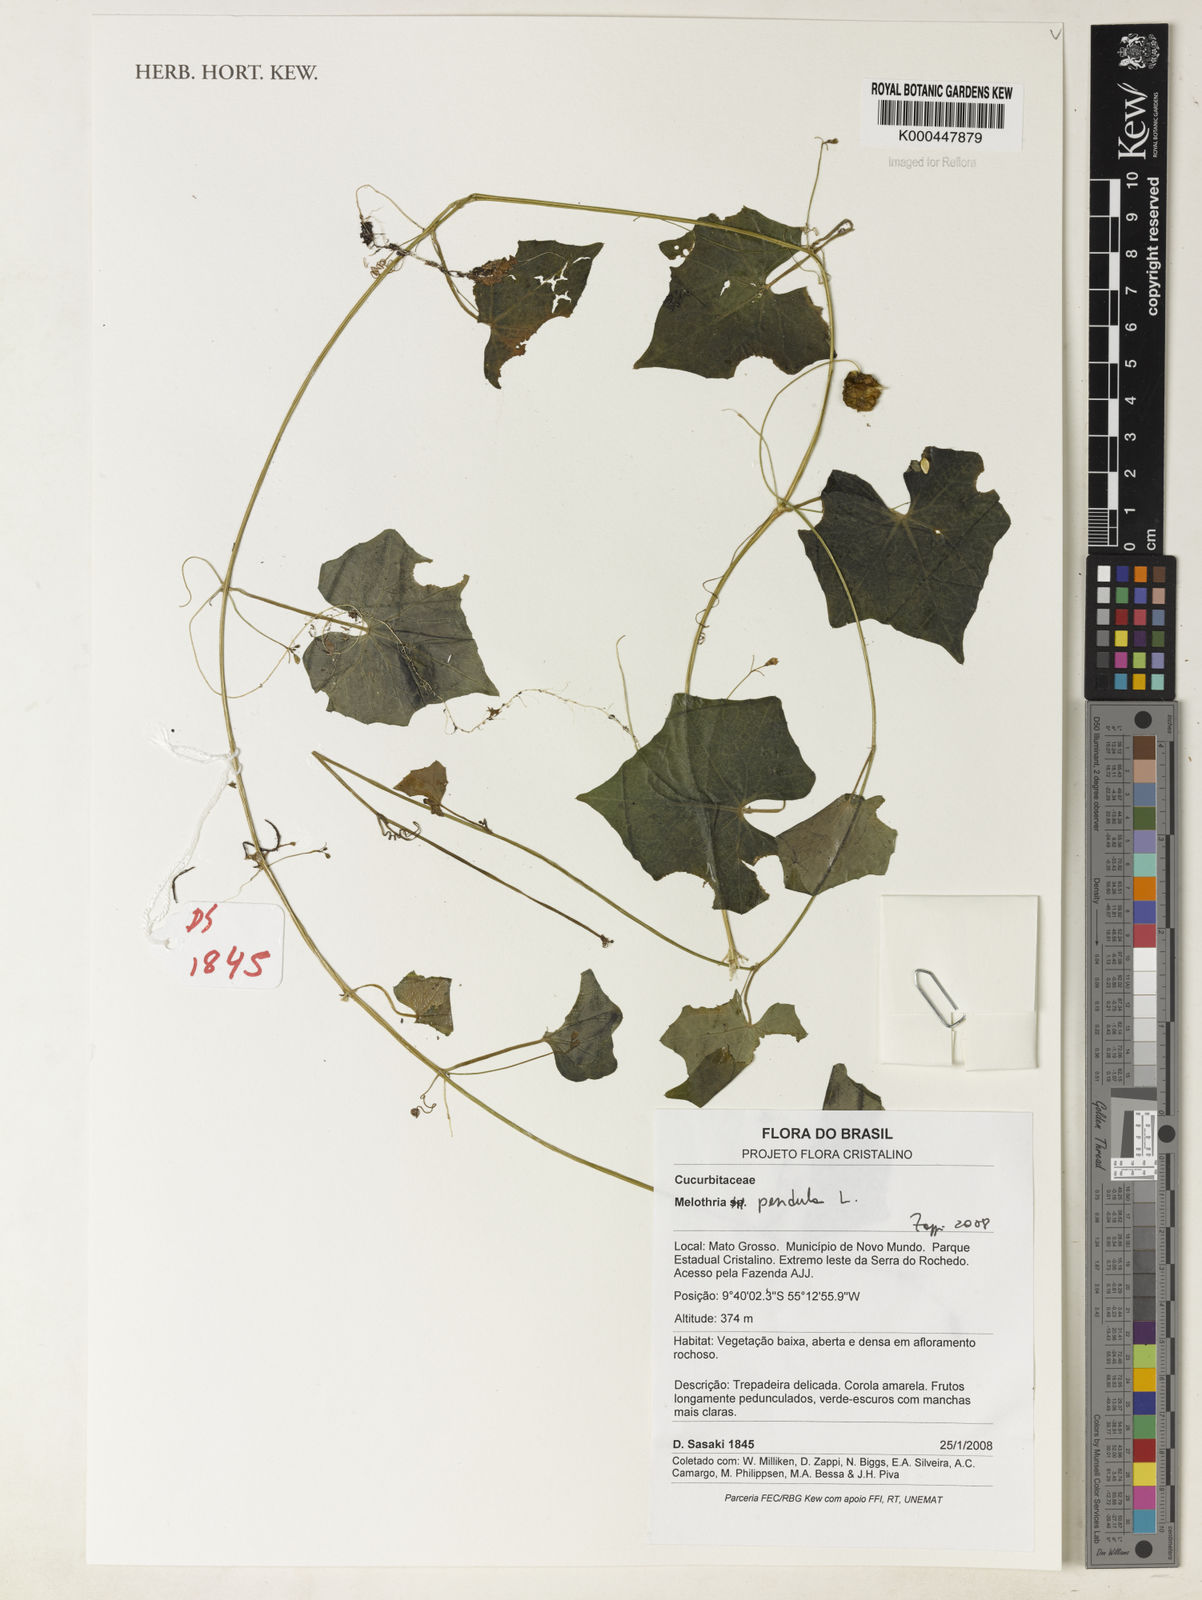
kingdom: Plantae
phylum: Tracheophyta
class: Magnoliopsida
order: Cucurbitales
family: Cucurbitaceae
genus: Melothria
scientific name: Melothria pendula
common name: Creeping-cucumber
